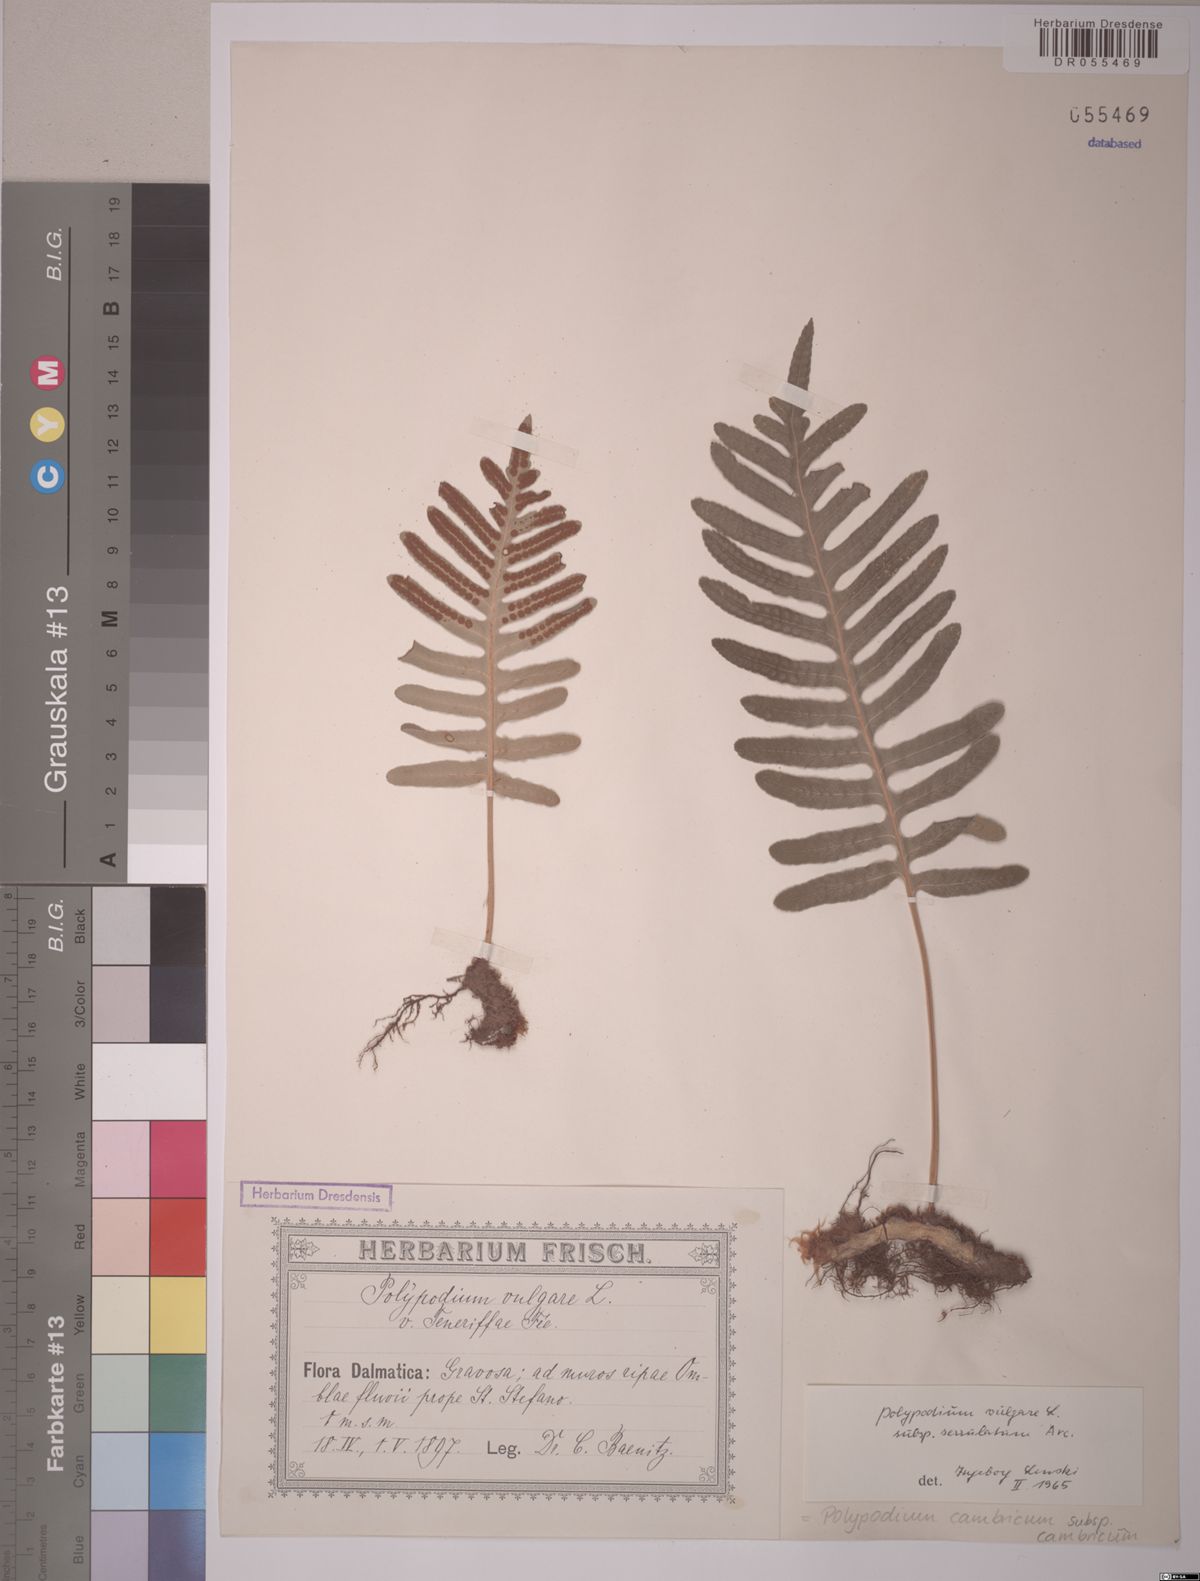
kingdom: Plantae
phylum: Tracheophyta
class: Polypodiopsida
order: Polypodiales
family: Polypodiaceae
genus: Polypodium
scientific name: Polypodium cambricum
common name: Southern polypody
